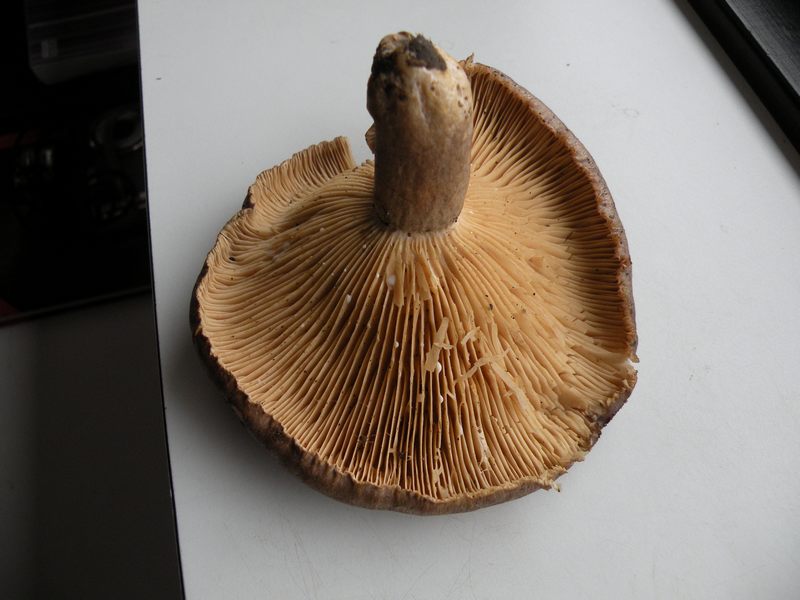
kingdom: Fungi
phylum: Basidiomycota
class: Agaricomycetes
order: Russulales
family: Russulaceae
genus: Lactarius
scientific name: Lactarius circellatus
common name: avnbøg-mælkehat
